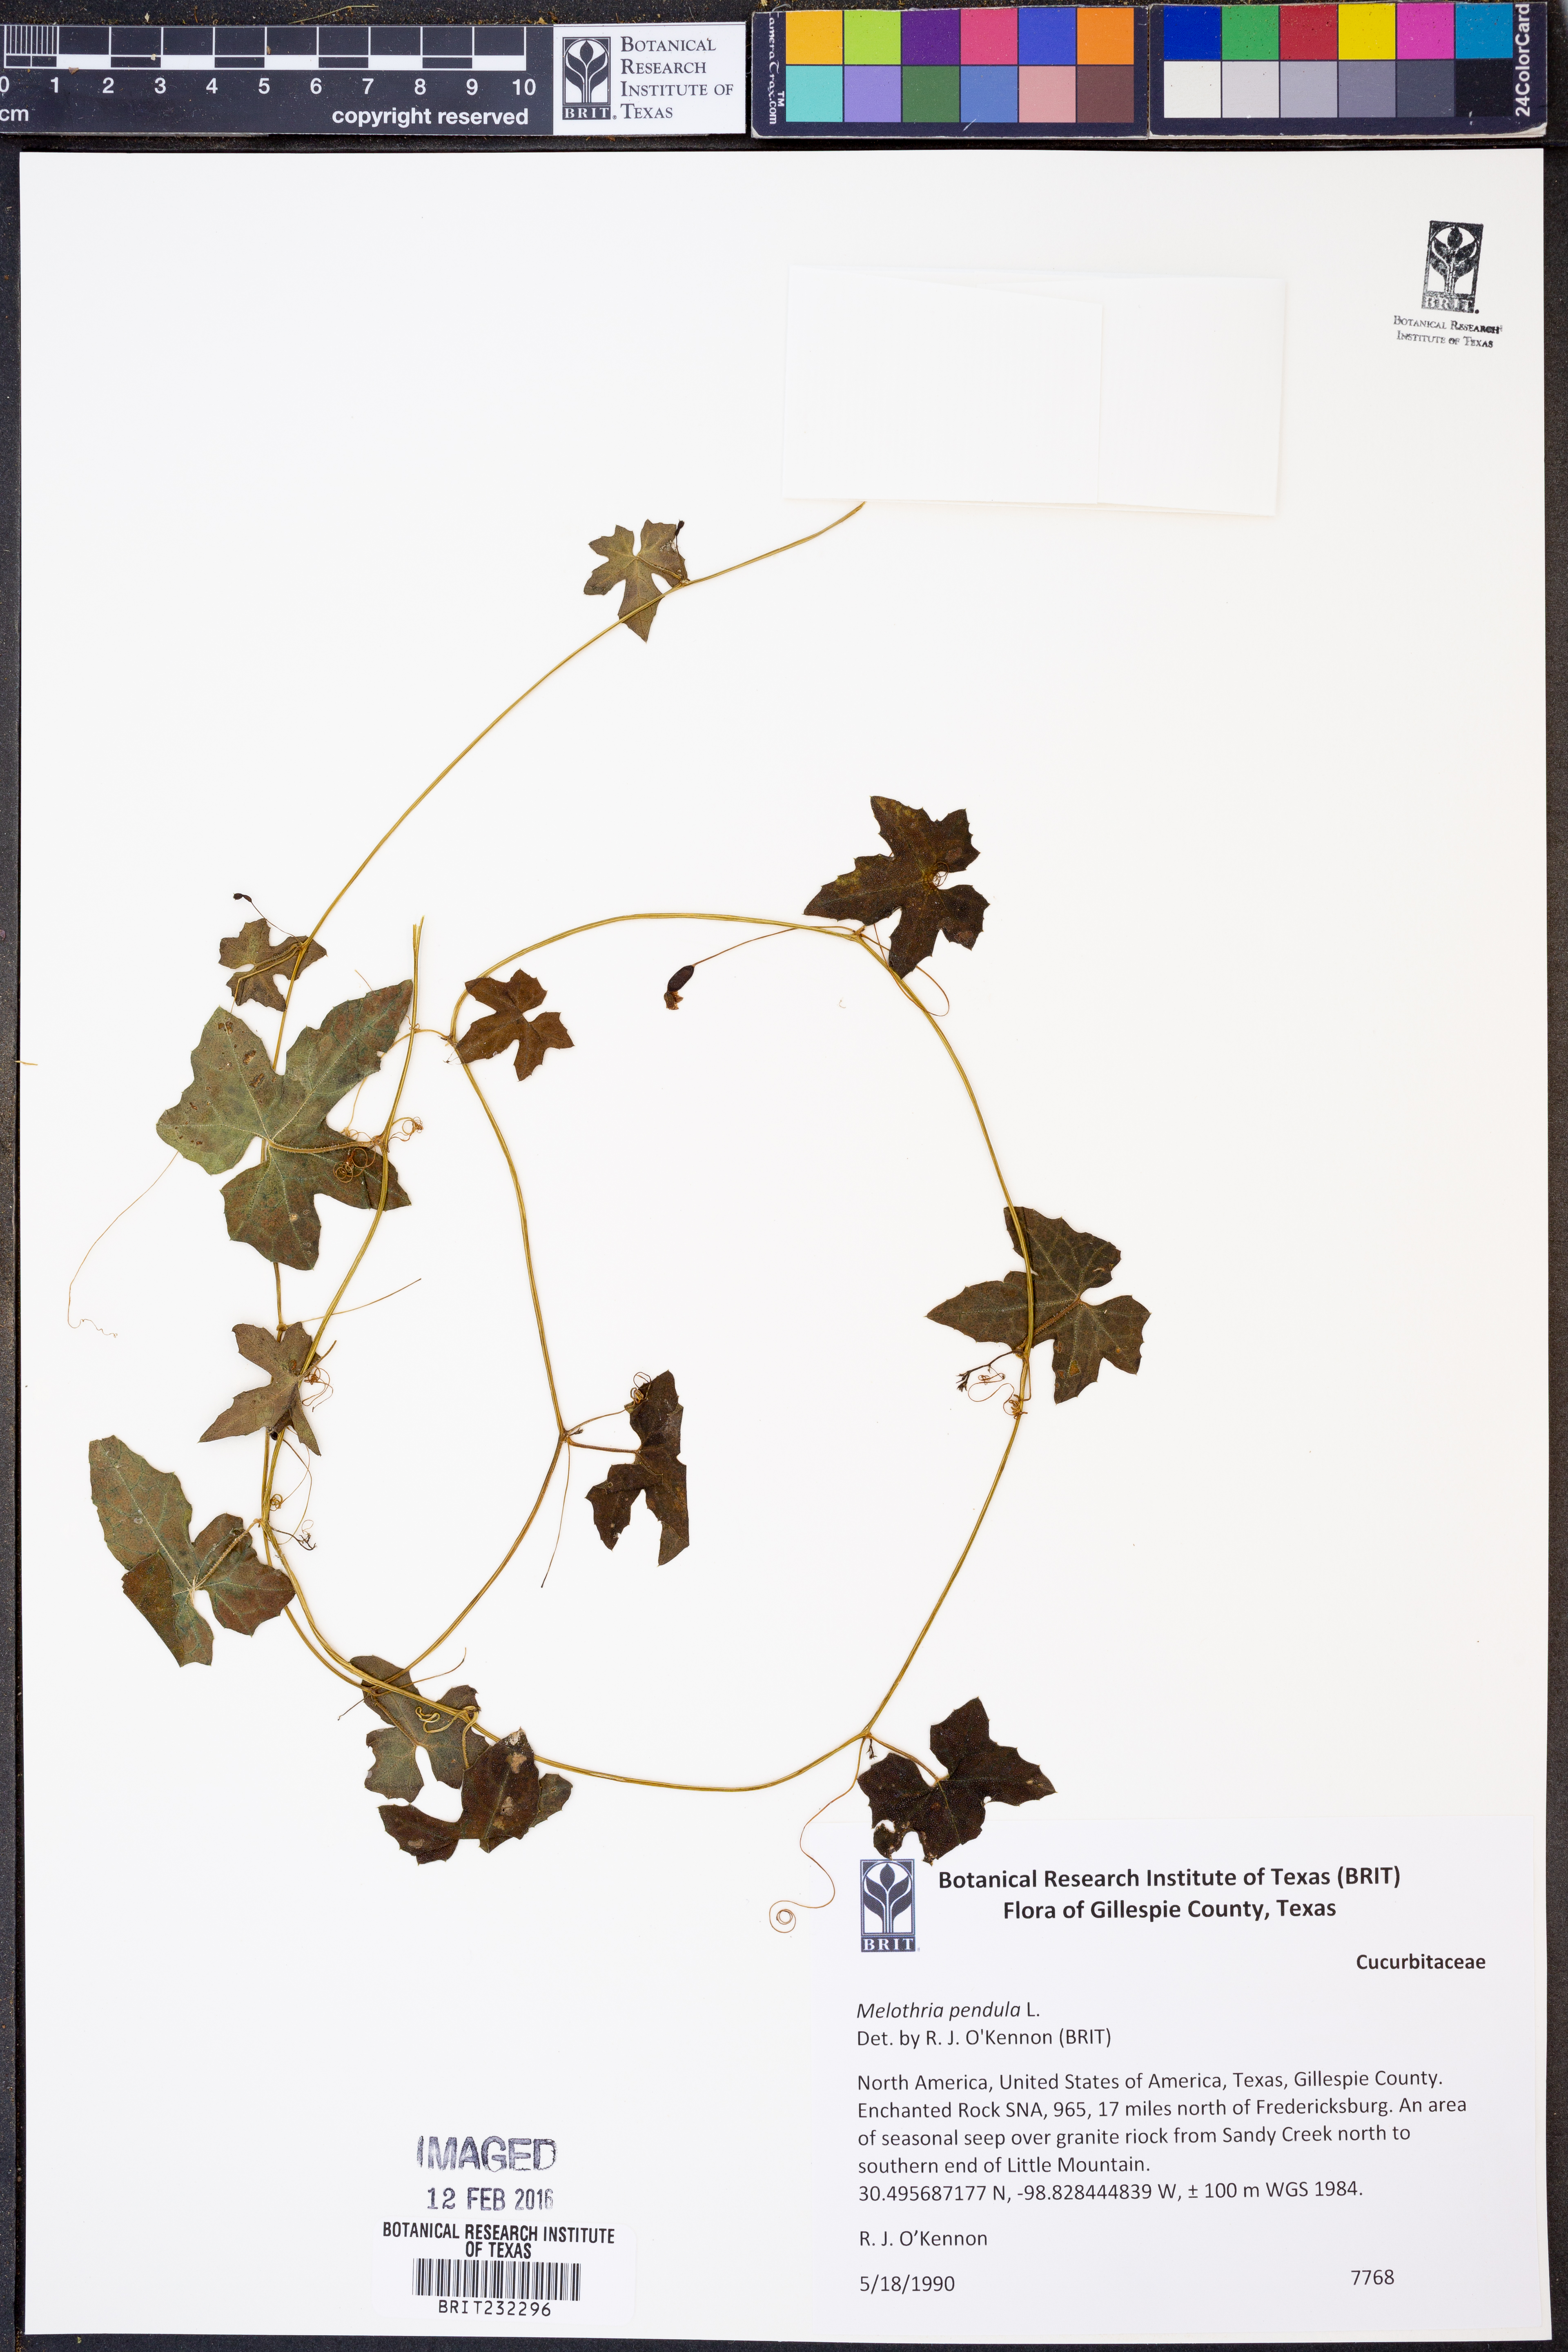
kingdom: Plantae
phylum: Tracheophyta
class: Magnoliopsida
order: Cucurbitales
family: Cucurbitaceae
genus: Melothria
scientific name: Melothria pendula
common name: Creeping-cucumber
